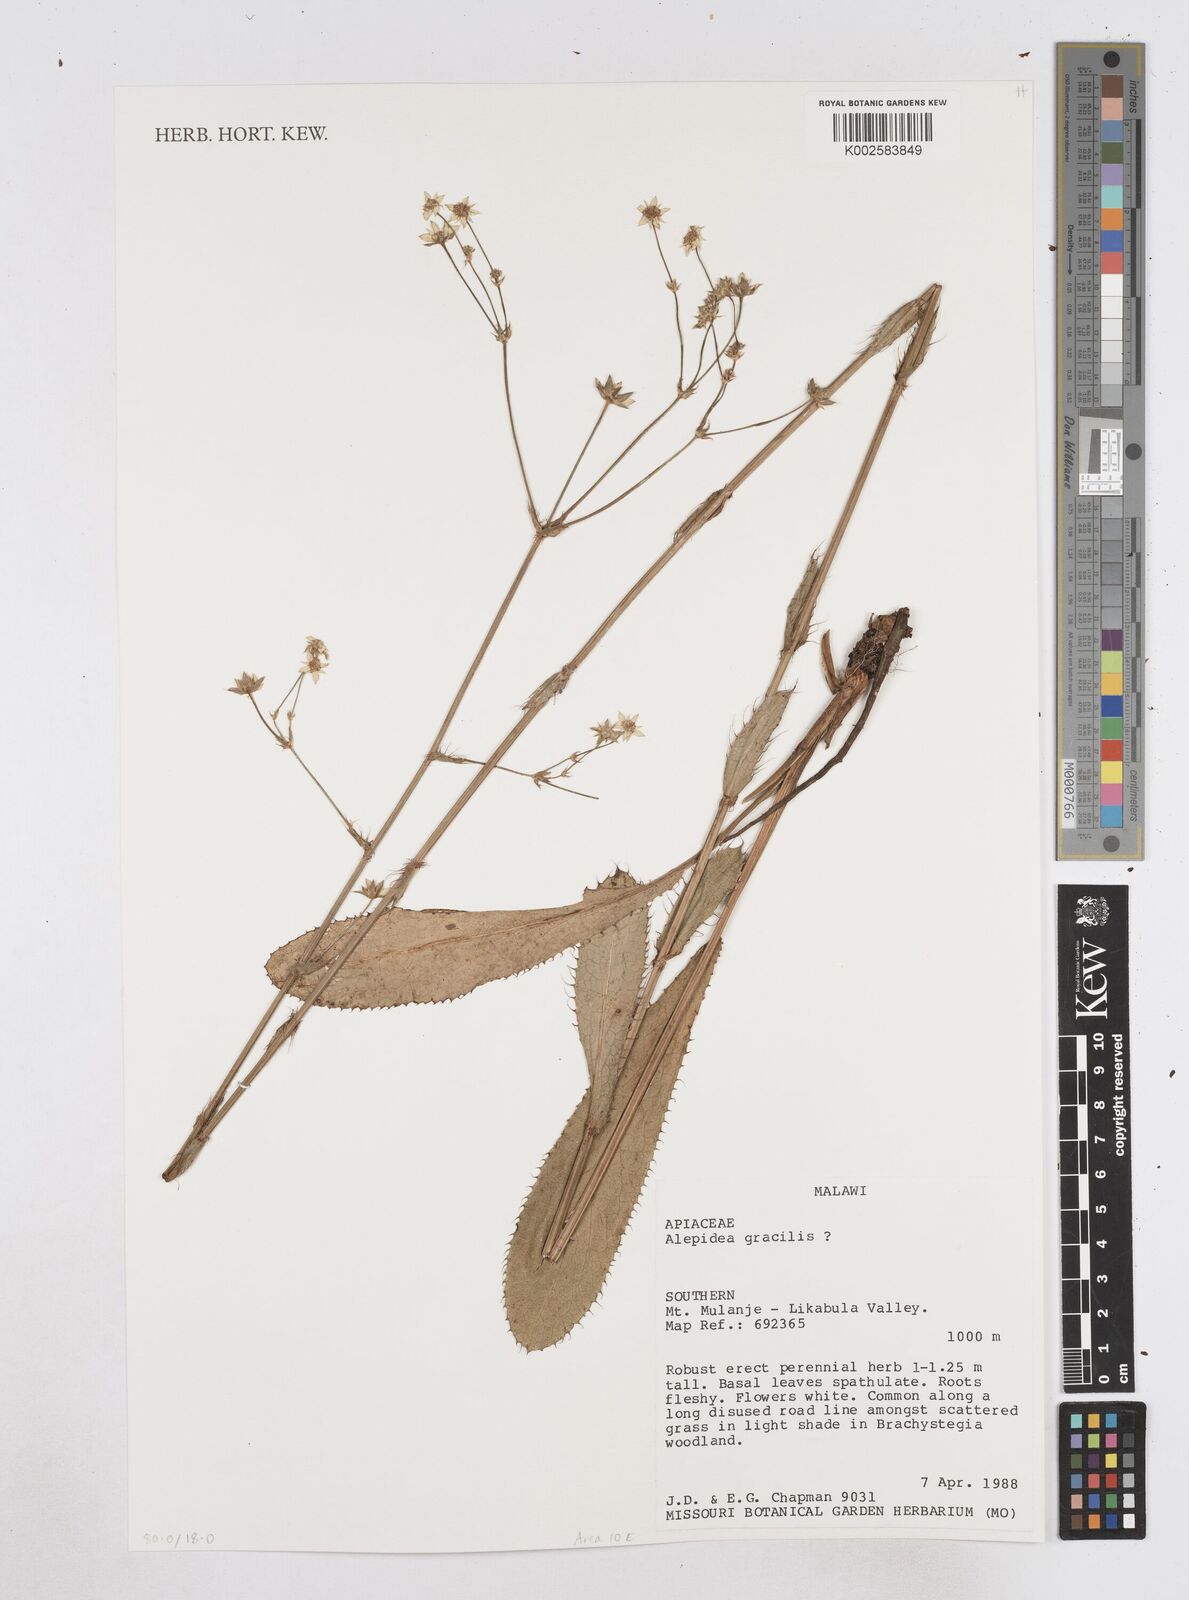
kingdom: Plantae
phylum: Tracheophyta
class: Magnoliopsida
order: Apiales
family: Apiaceae
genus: Alepidea
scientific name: Alepidea peduncularis
